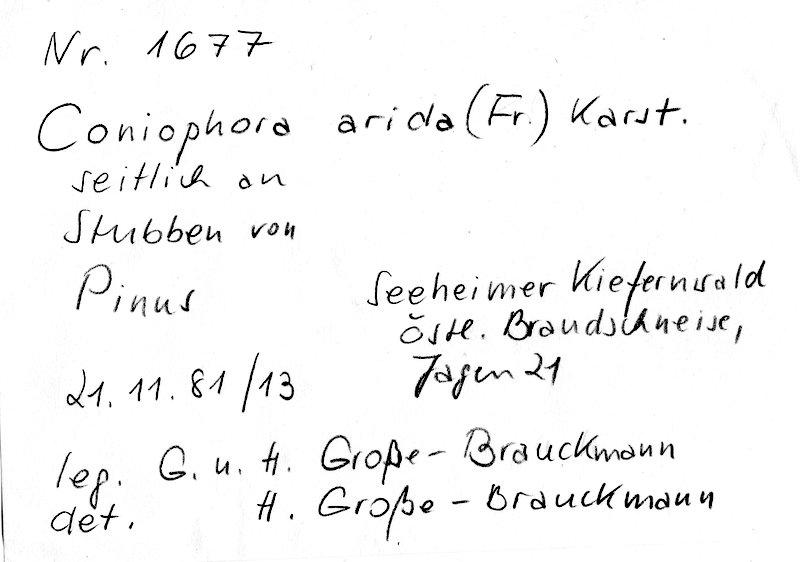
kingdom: Plantae
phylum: Tracheophyta
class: Pinopsida
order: Pinales
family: Pinaceae
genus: Pinus
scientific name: Pinus
